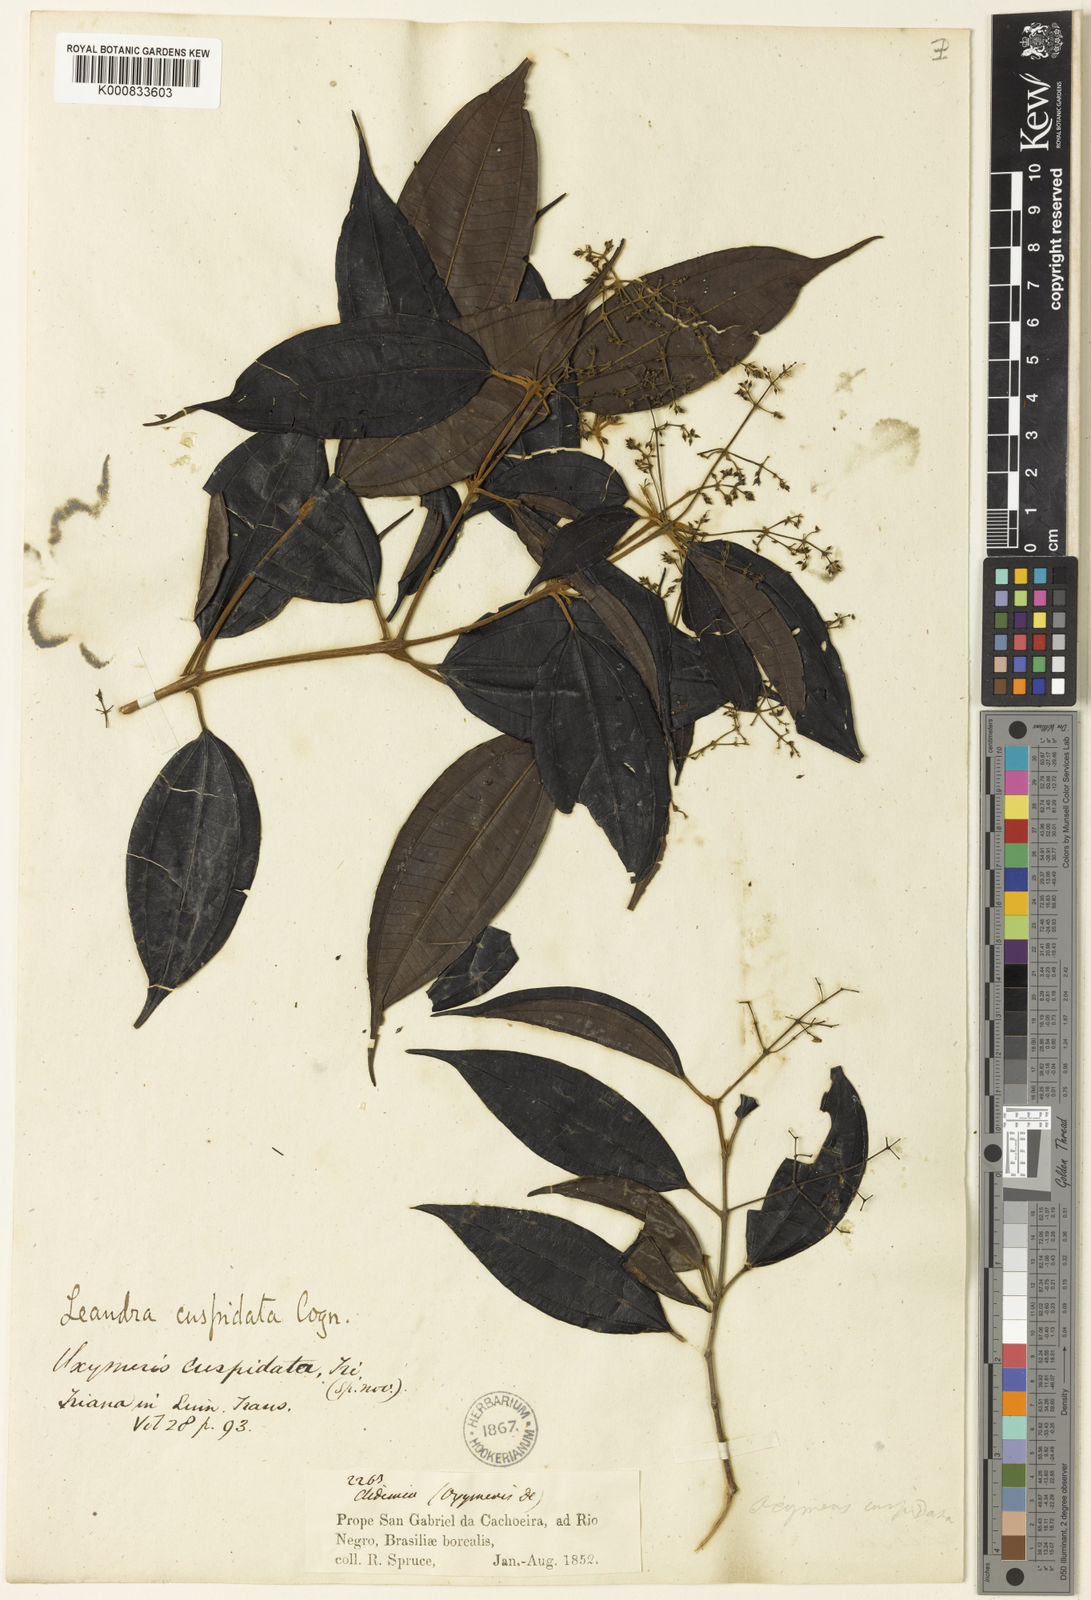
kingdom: Plantae
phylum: Tracheophyta
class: Magnoliopsida
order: Myrtales
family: Melastomataceae
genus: Miconia
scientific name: Miconia eugenioides
